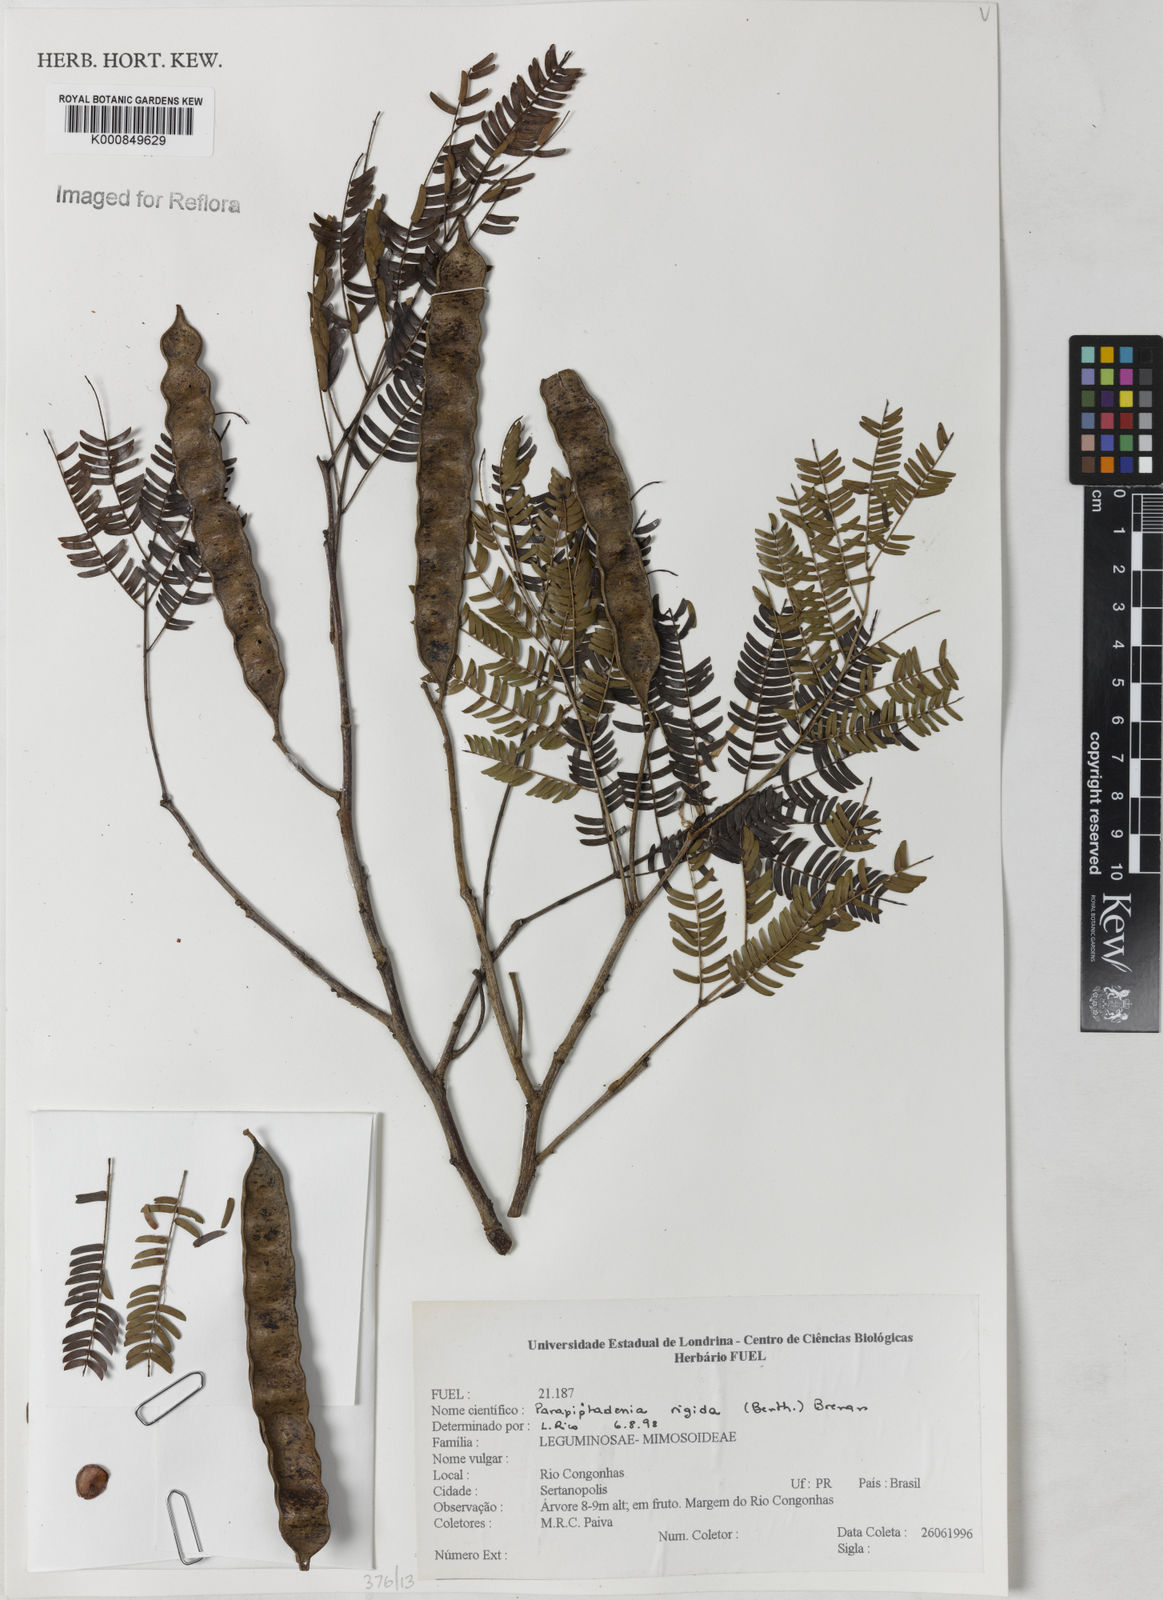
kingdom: Plantae
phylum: Tracheophyta
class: Magnoliopsida
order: Fabales
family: Fabaceae
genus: Parapiptadenia
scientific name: Parapiptadenia rigida
